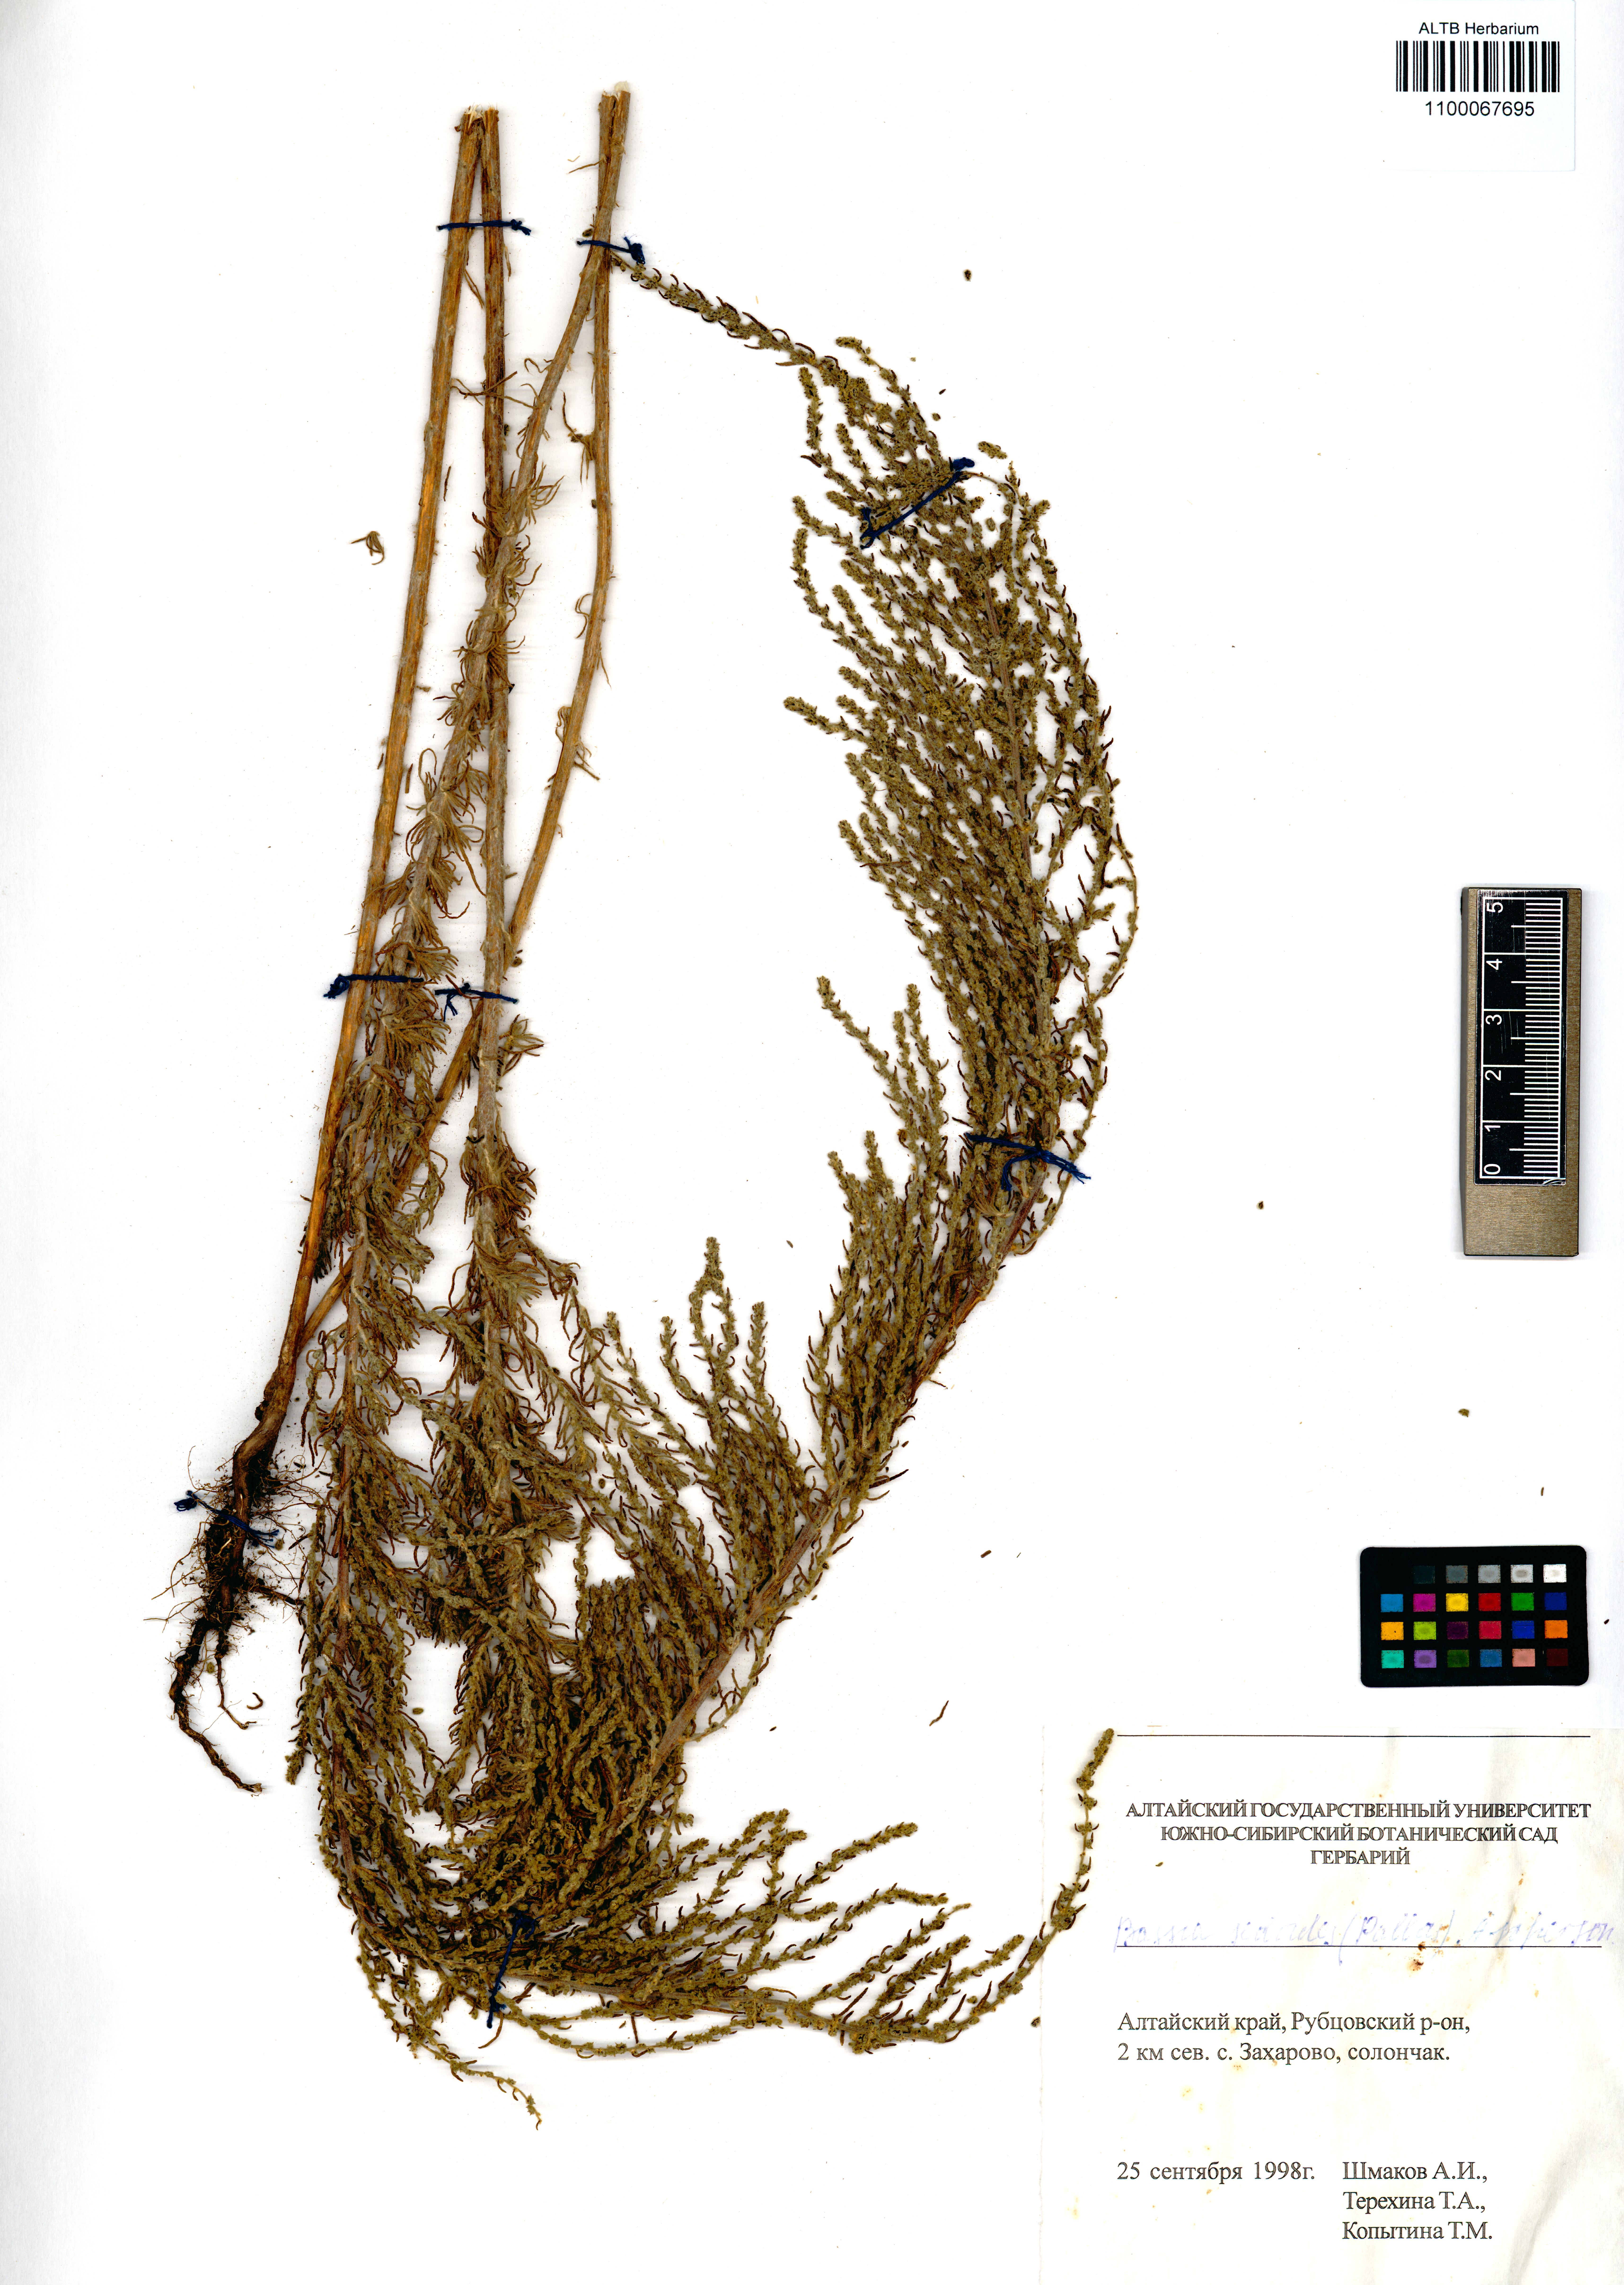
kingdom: Plantae
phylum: Tracheophyta
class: Magnoliopsida
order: Caryophyllales
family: Amaranthaceae
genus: Sedobassia
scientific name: Sedobassia sedoides
